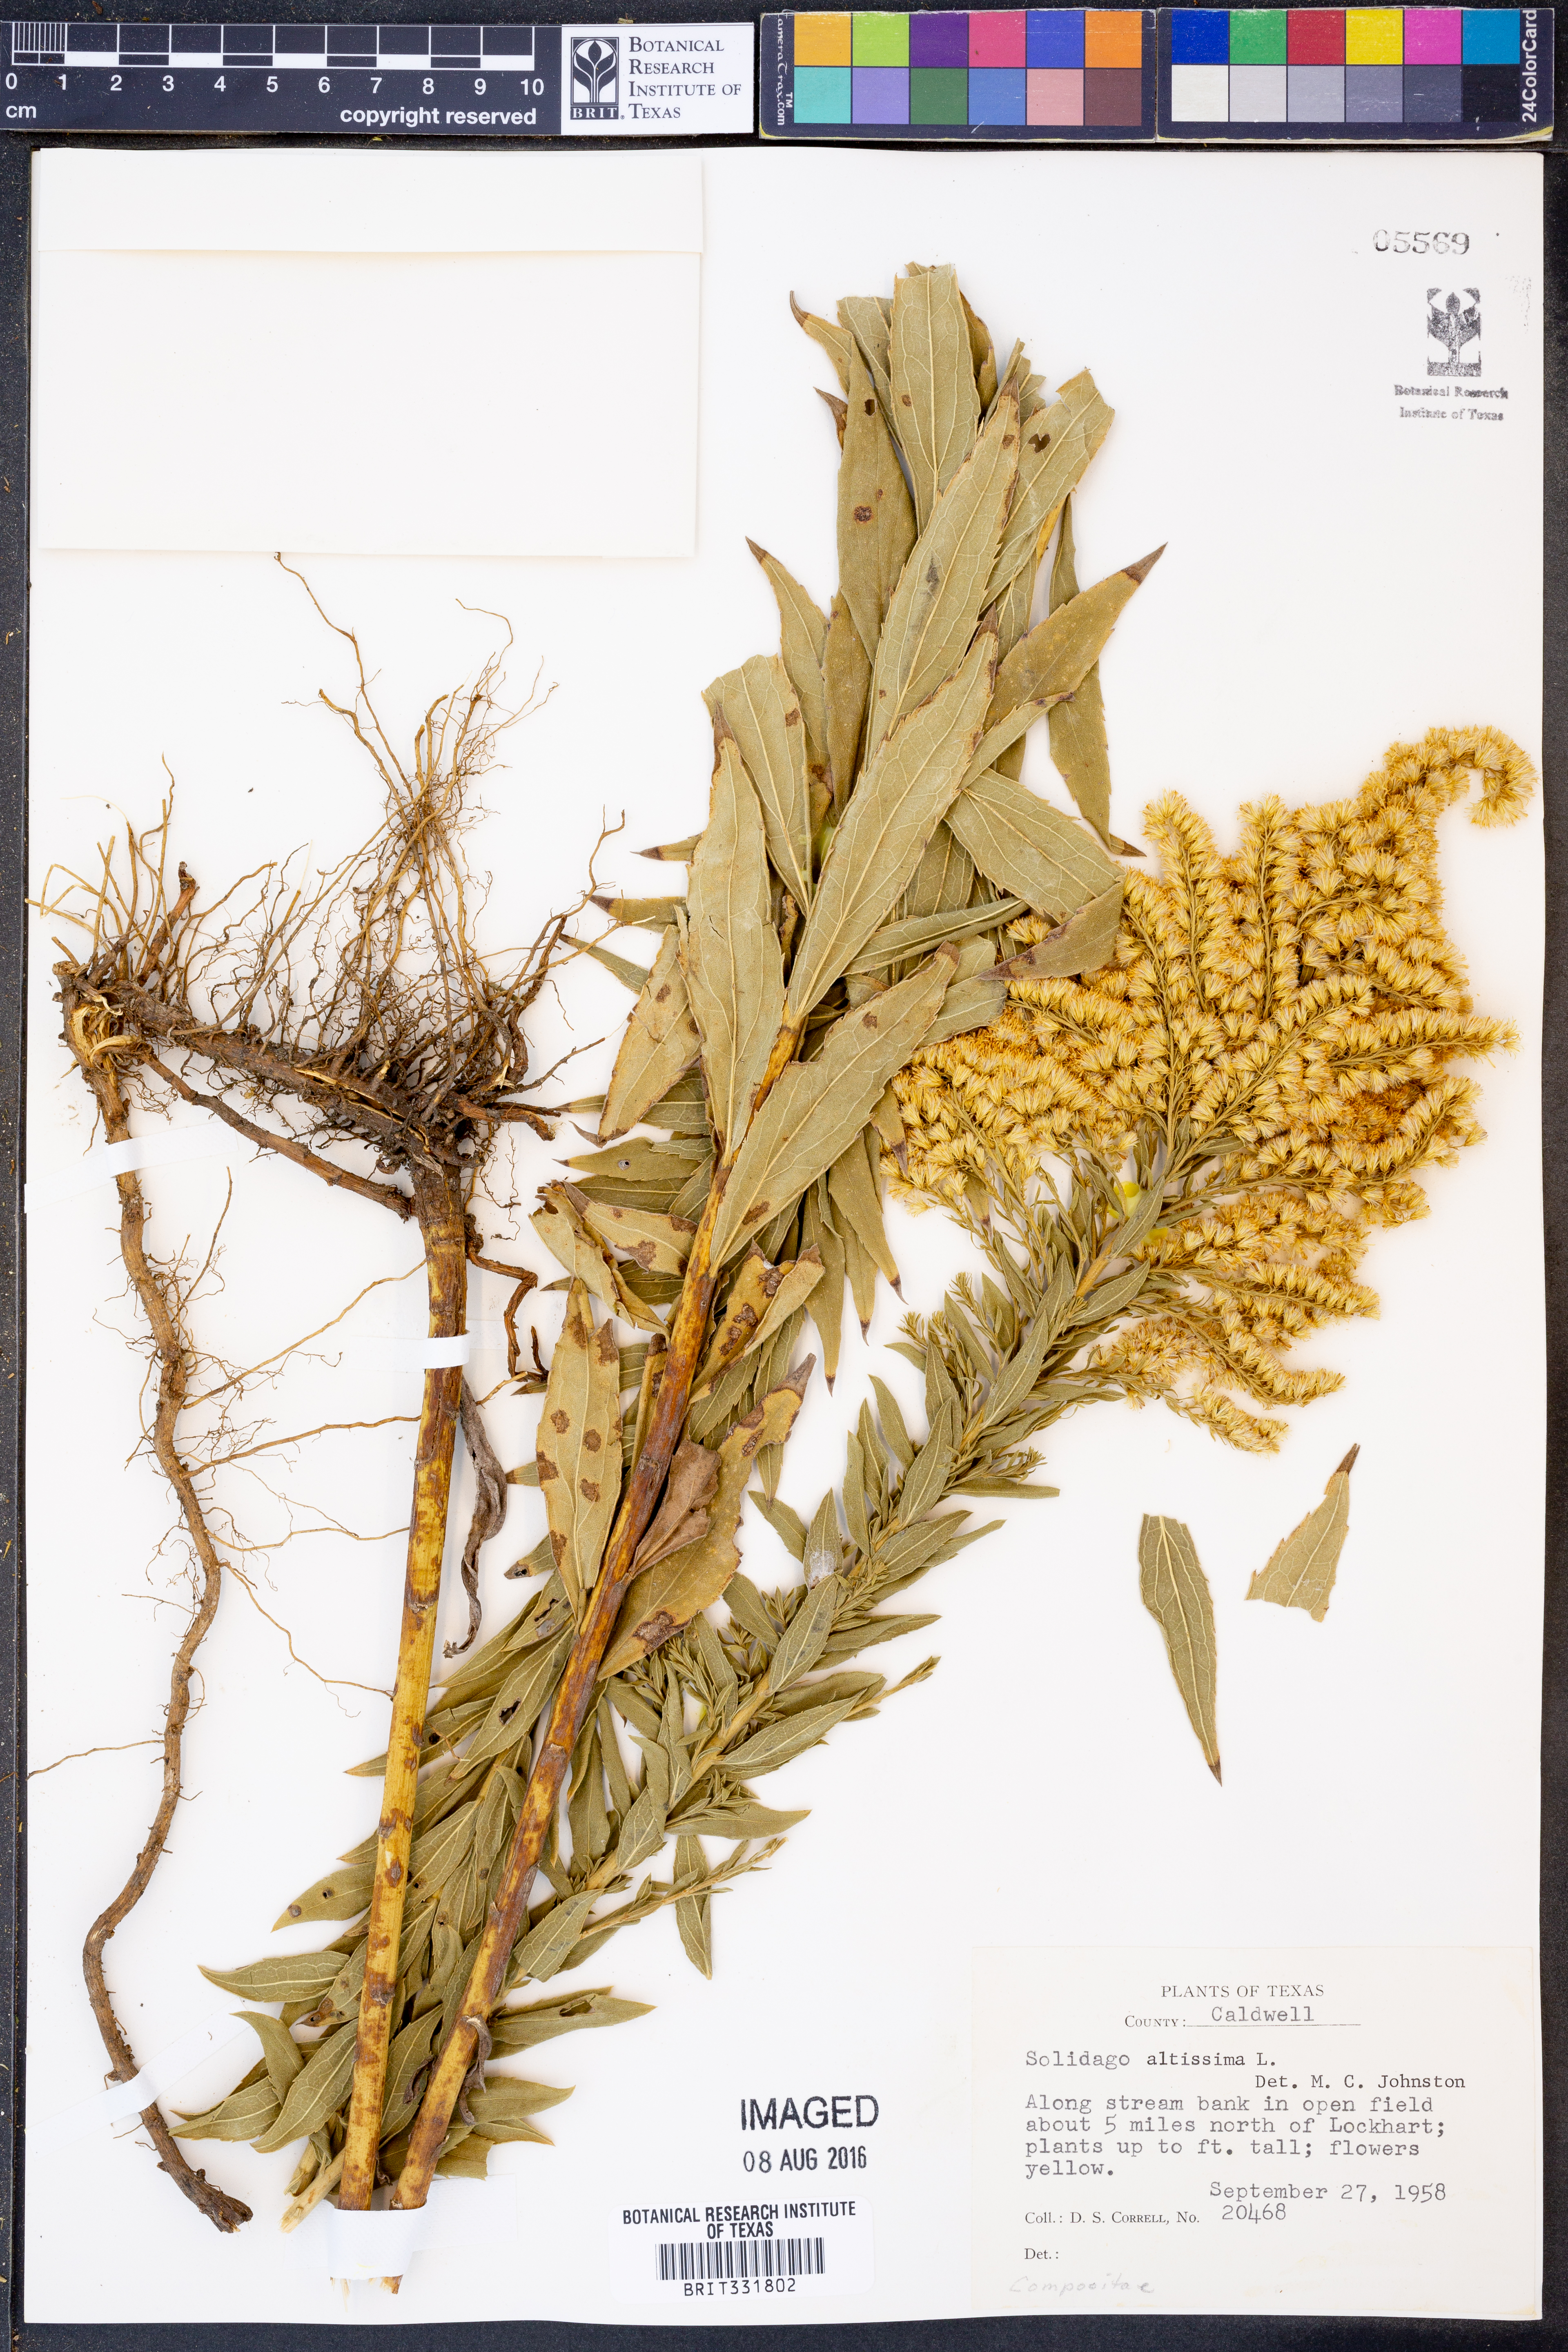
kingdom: Plantae
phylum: Tracheophyta
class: Magnoliopsida
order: Asterales
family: Asteraceae
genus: Solidago
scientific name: Solidago altissima
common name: Late goldenrod
